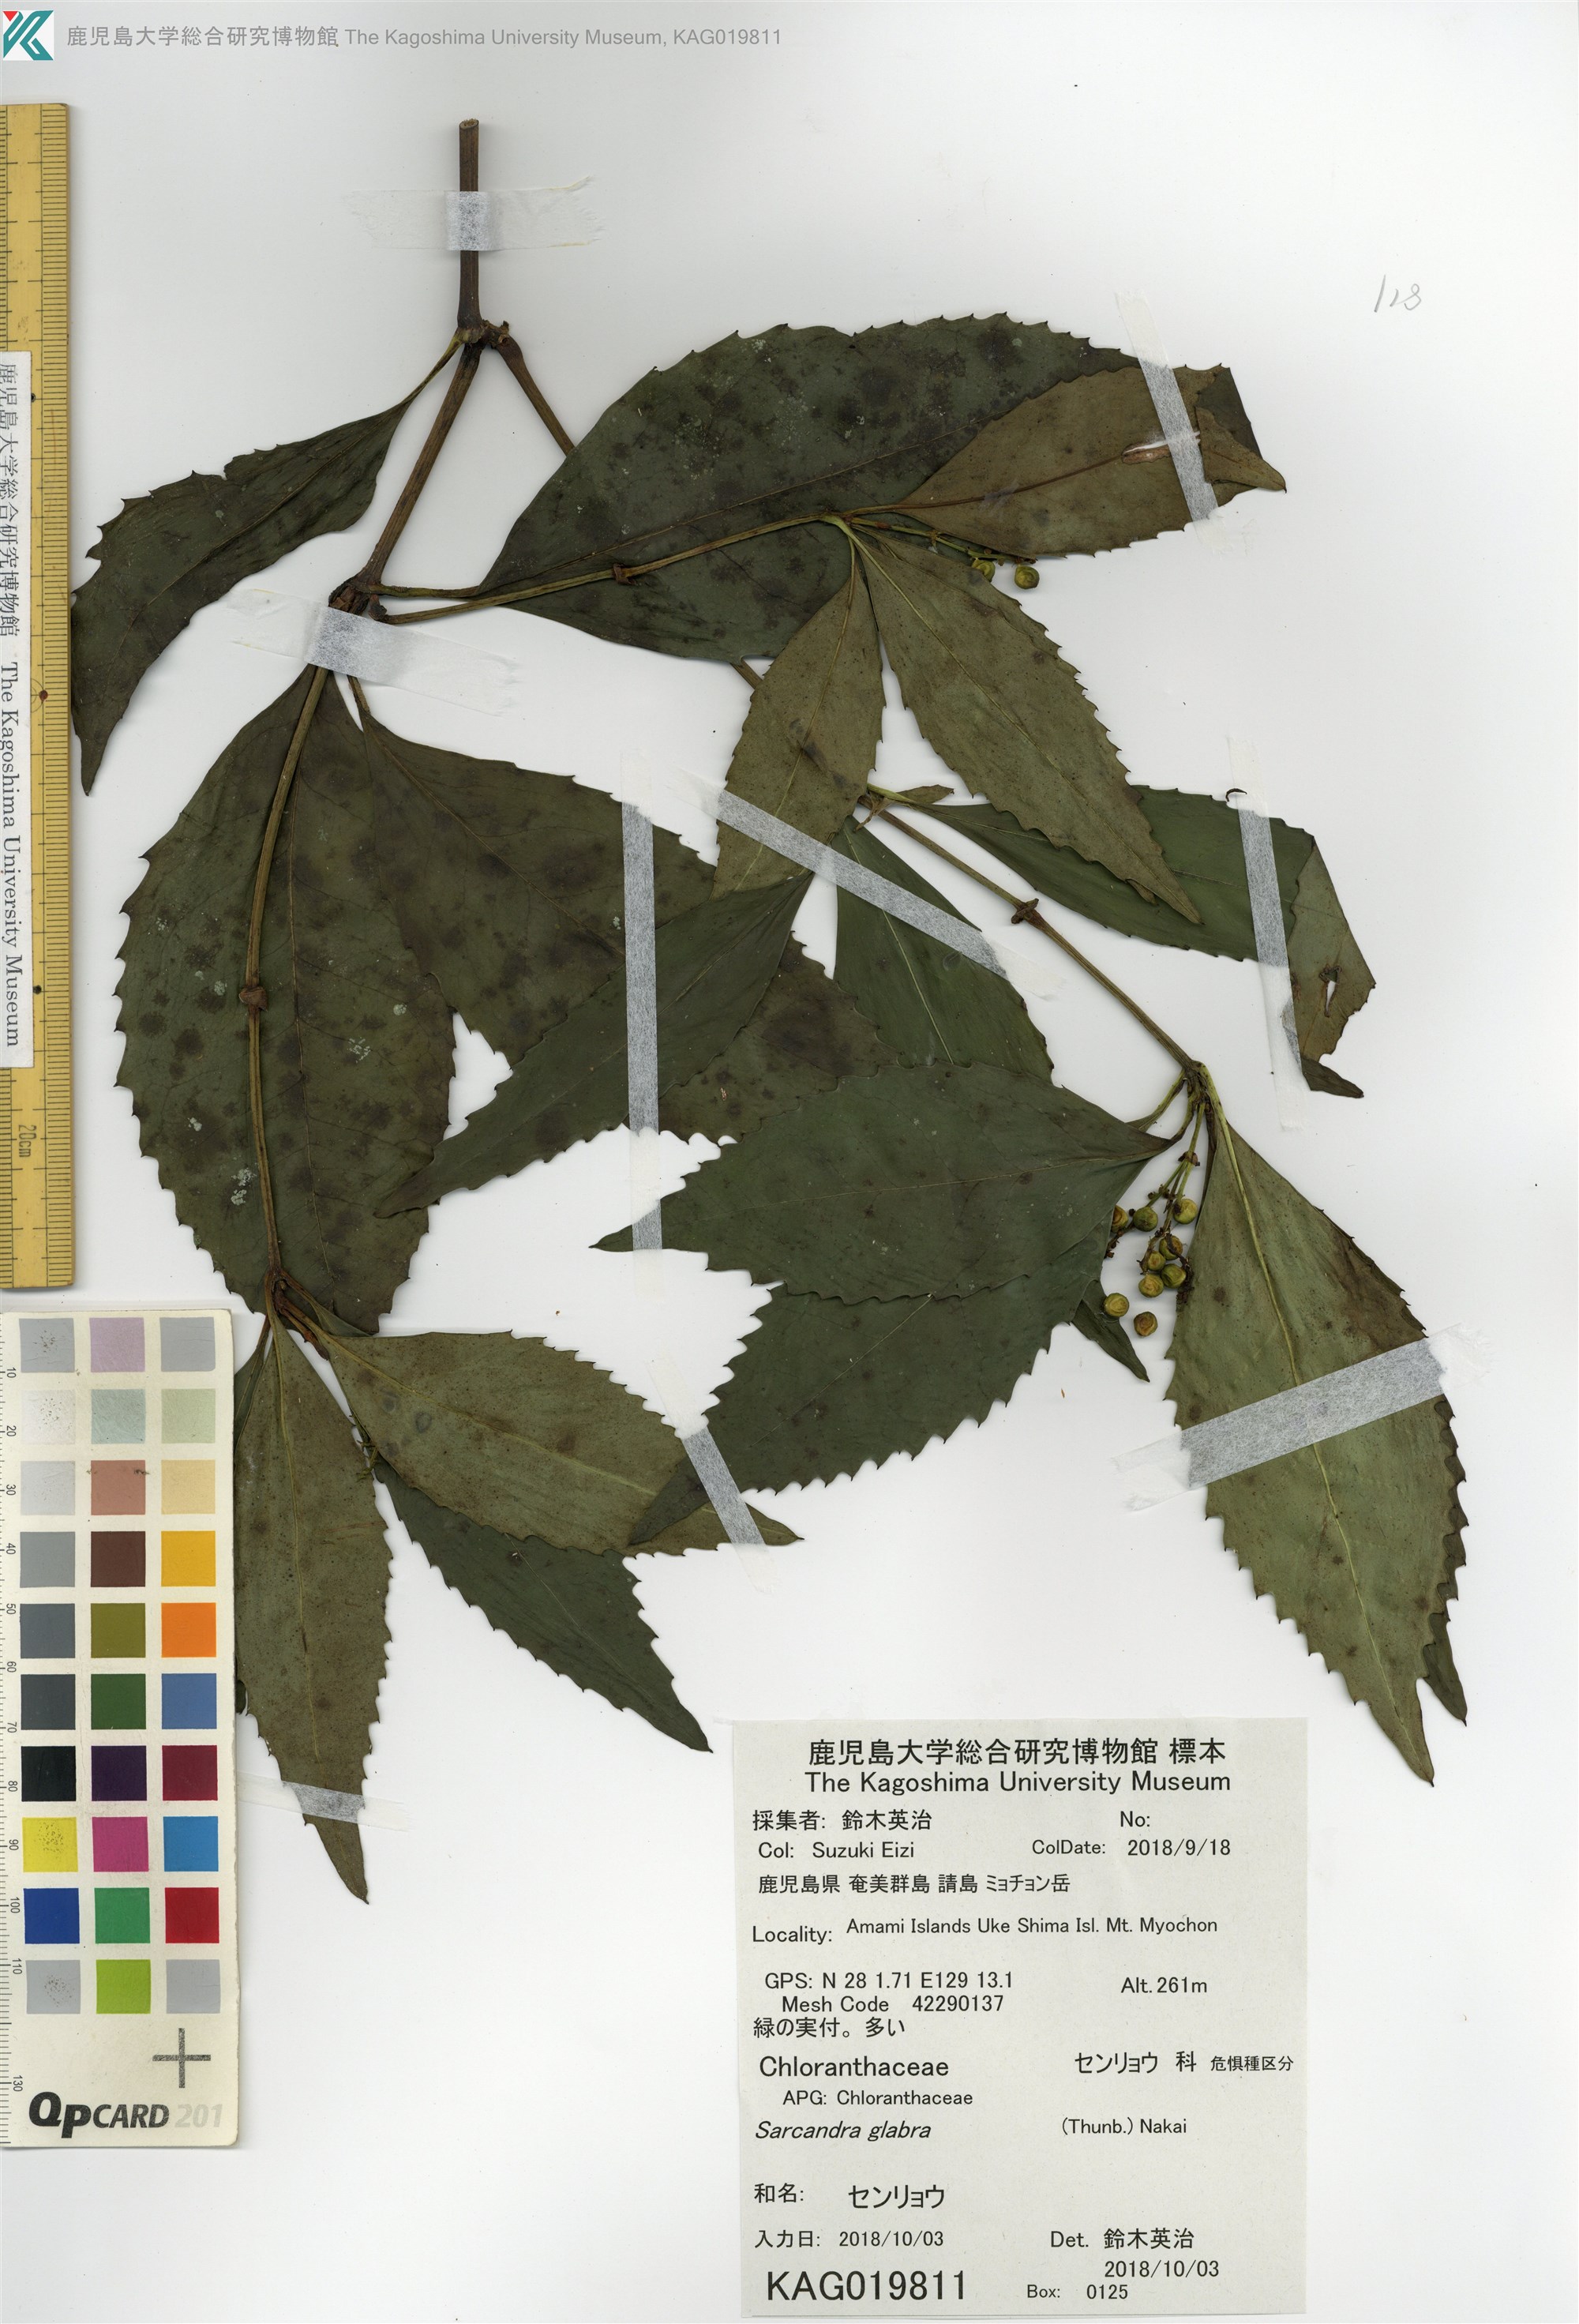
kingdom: Plantae
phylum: Tracheophyta
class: Magnoliopsida
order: Chloranthales
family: Chloranthaceae
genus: Sarcandra
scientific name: Sarcandra glabra
